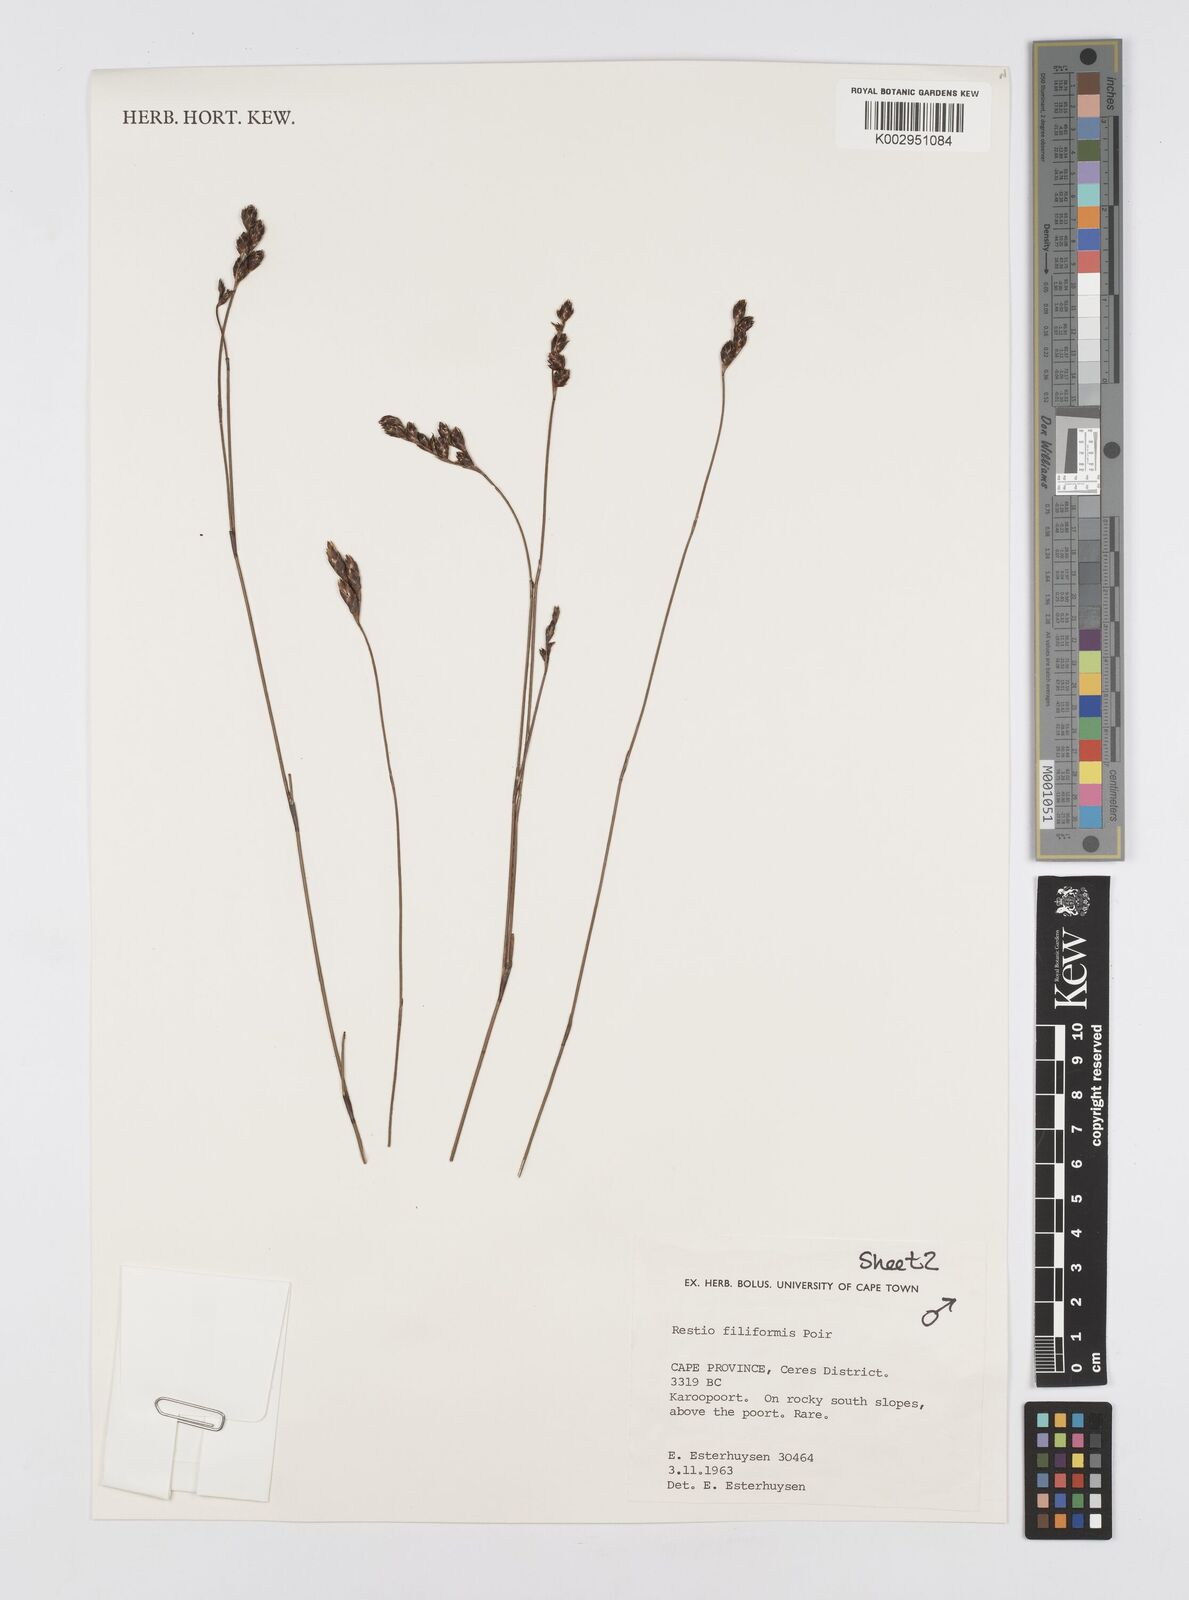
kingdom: Plantae
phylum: Tracheophyta
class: Liliopsida
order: Poales
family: Restionaceae
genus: Restio
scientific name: Restio filiformis
